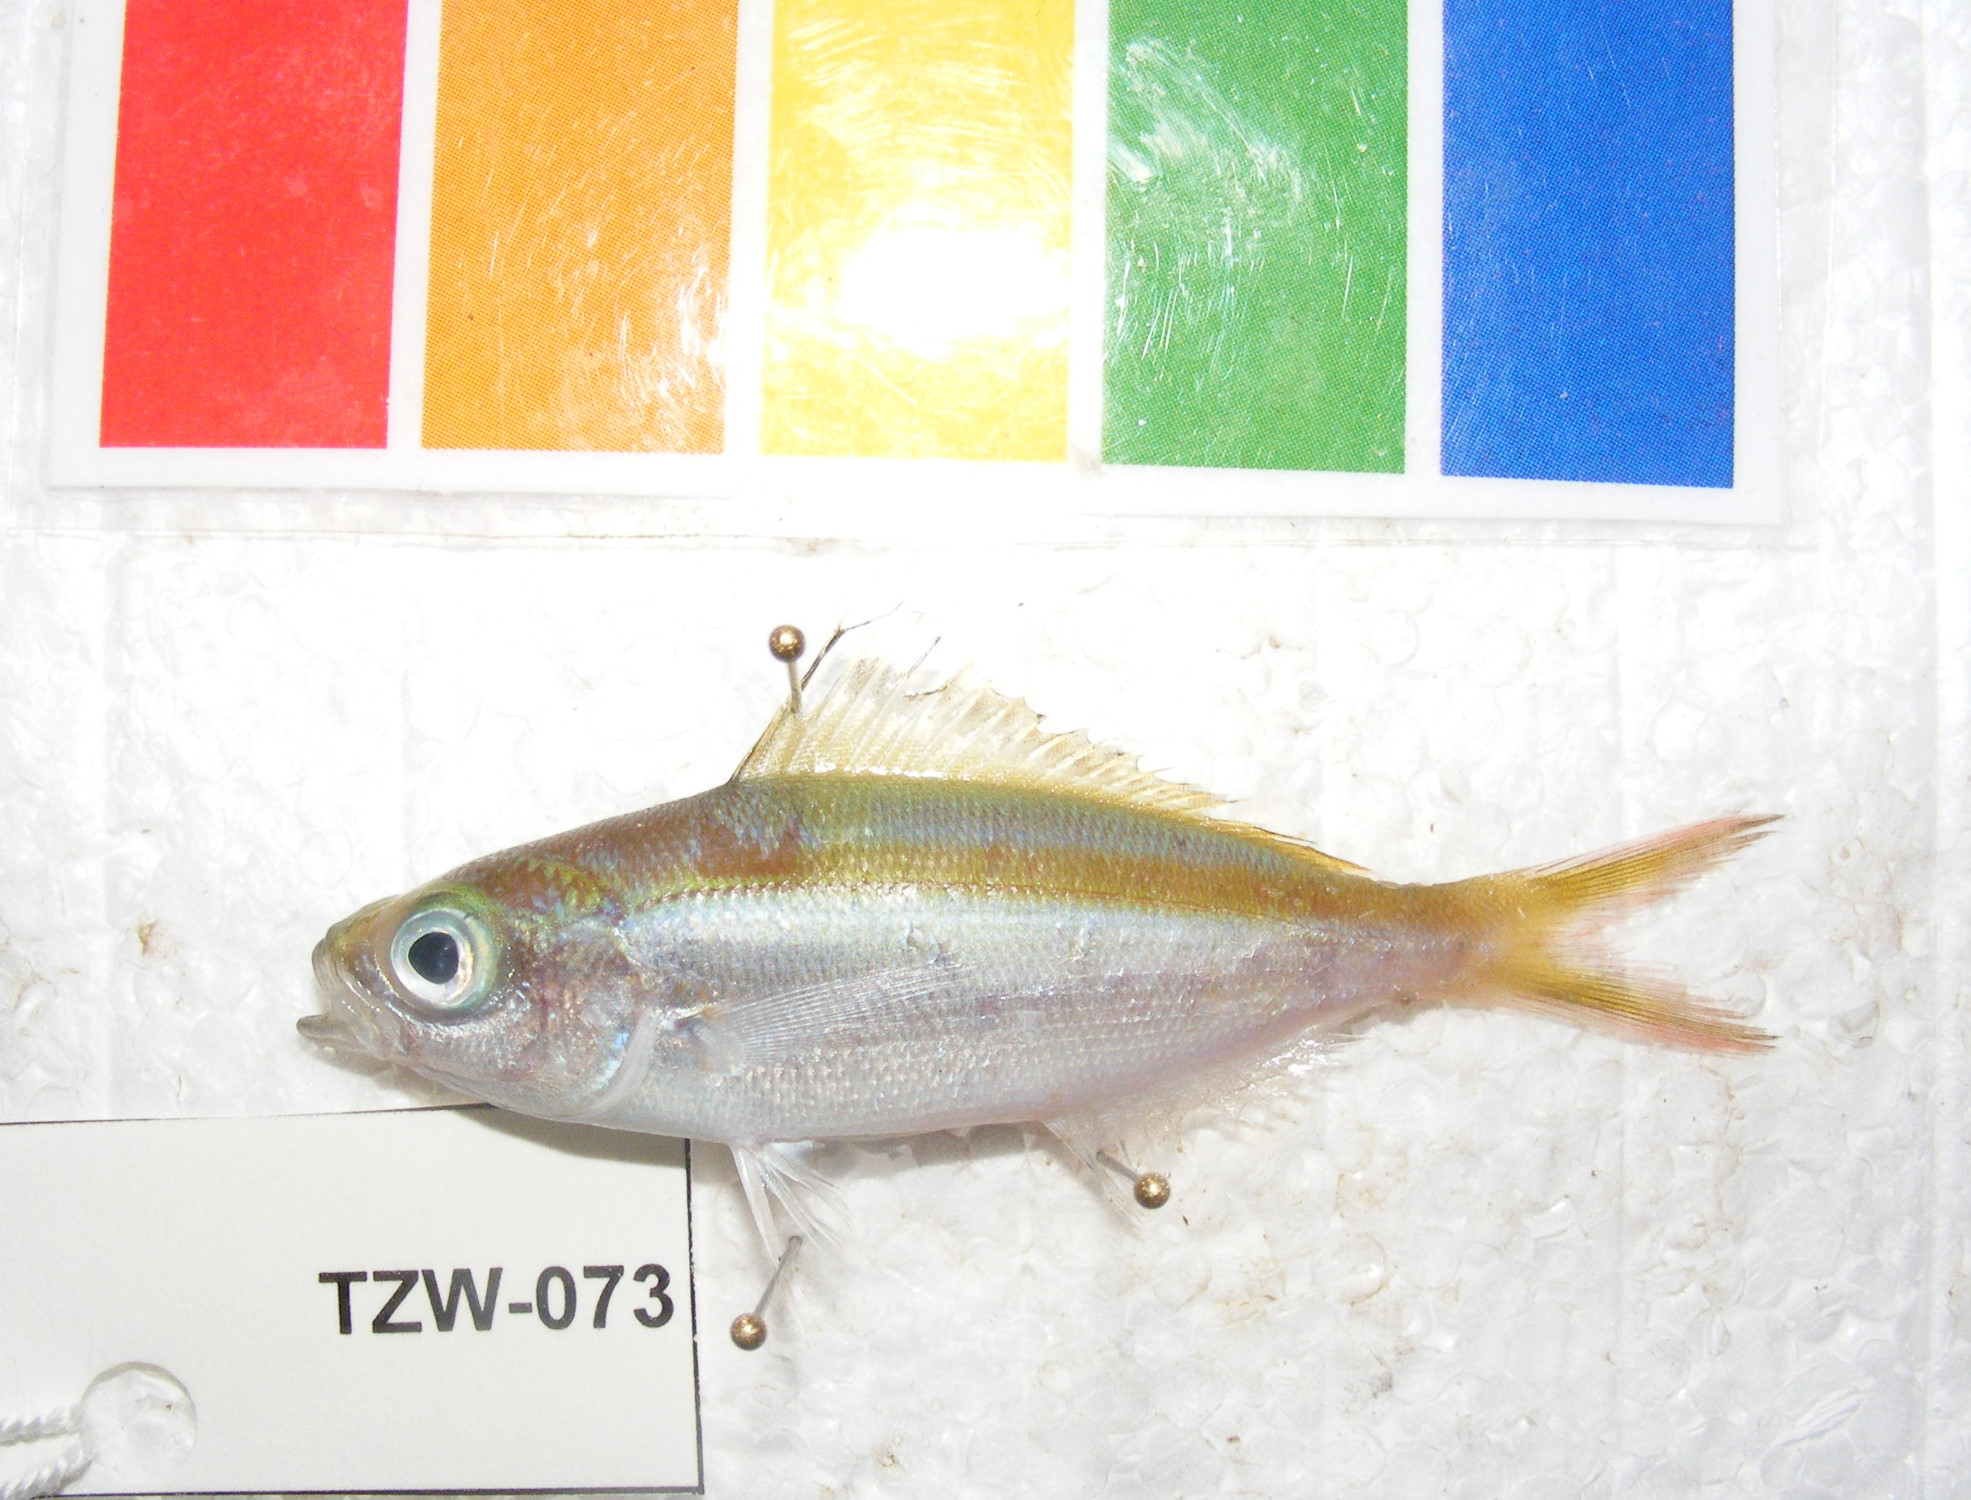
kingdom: Animalia
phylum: Chordata
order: Perciformes
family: Caesionidae
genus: Caesio
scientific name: Caesio caerulaurea
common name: Blue and gold fusilier
